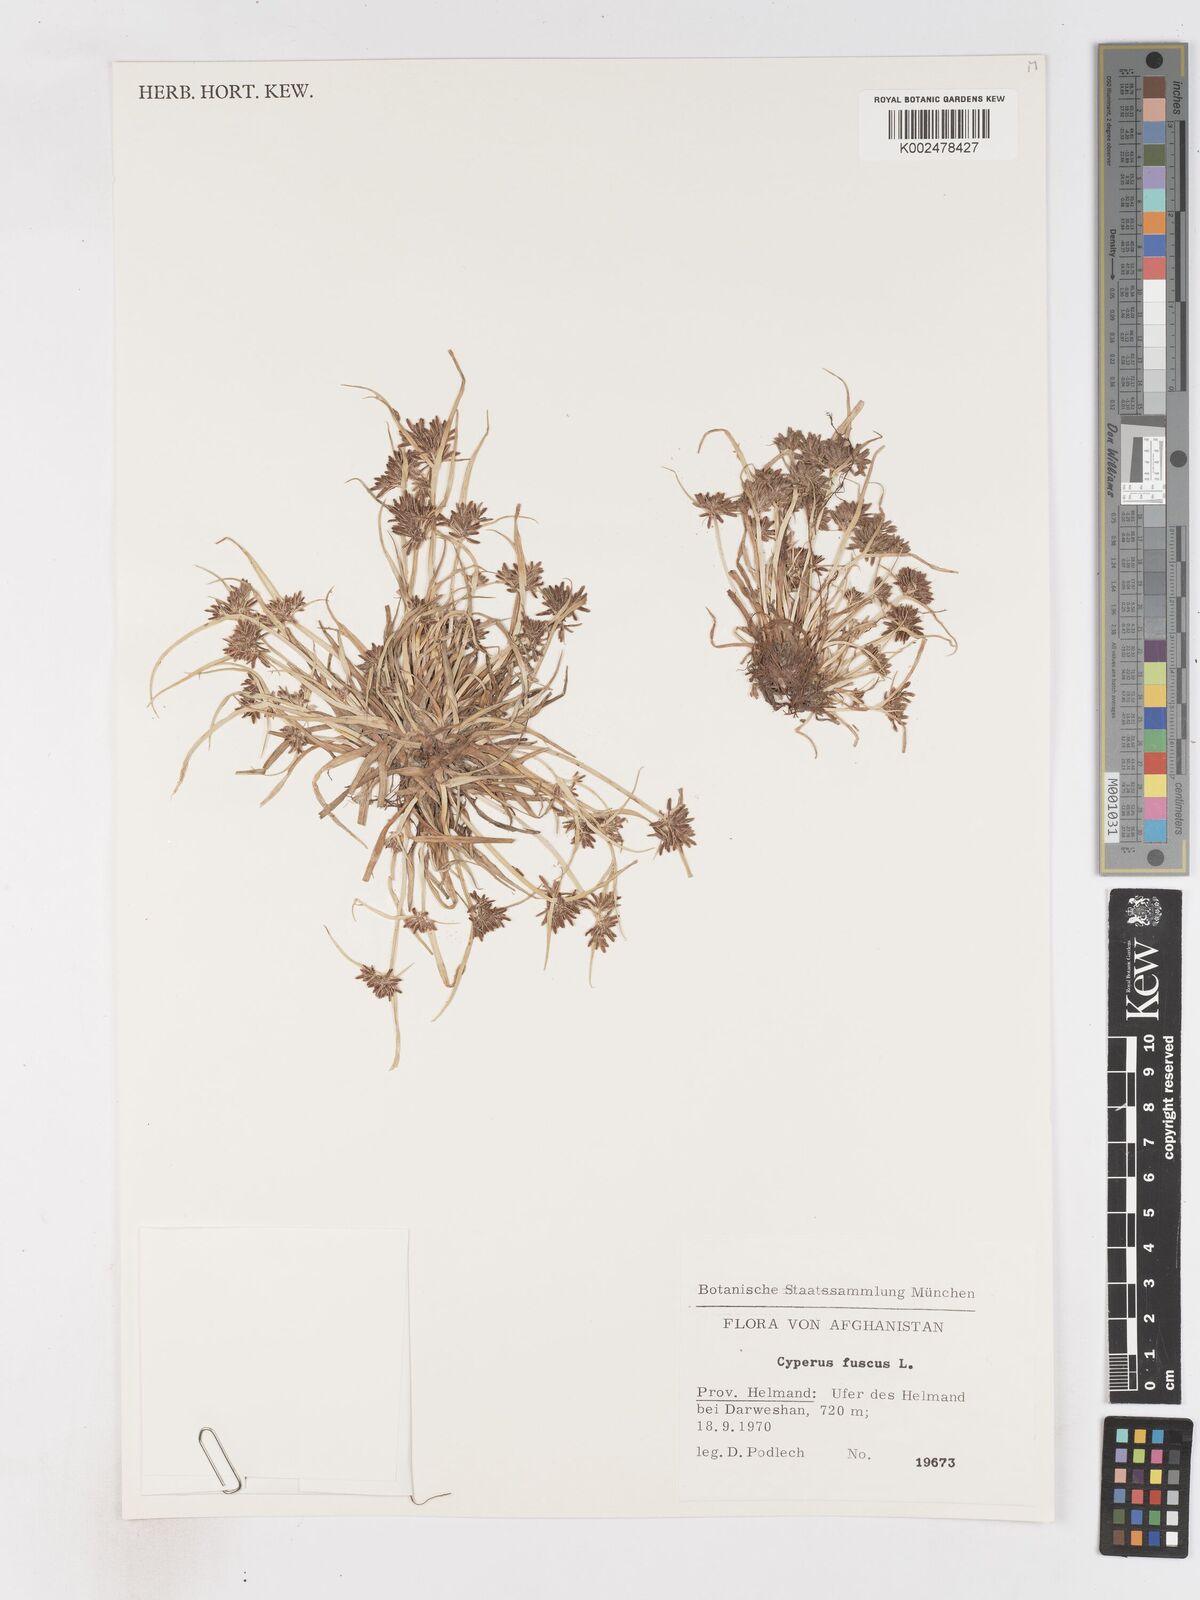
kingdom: Plantae
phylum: Tracheophyta
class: Liliopsida
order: Poales
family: Cyperaceae
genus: Cyperus
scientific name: Cyperus fuscus
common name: Brown galingale
